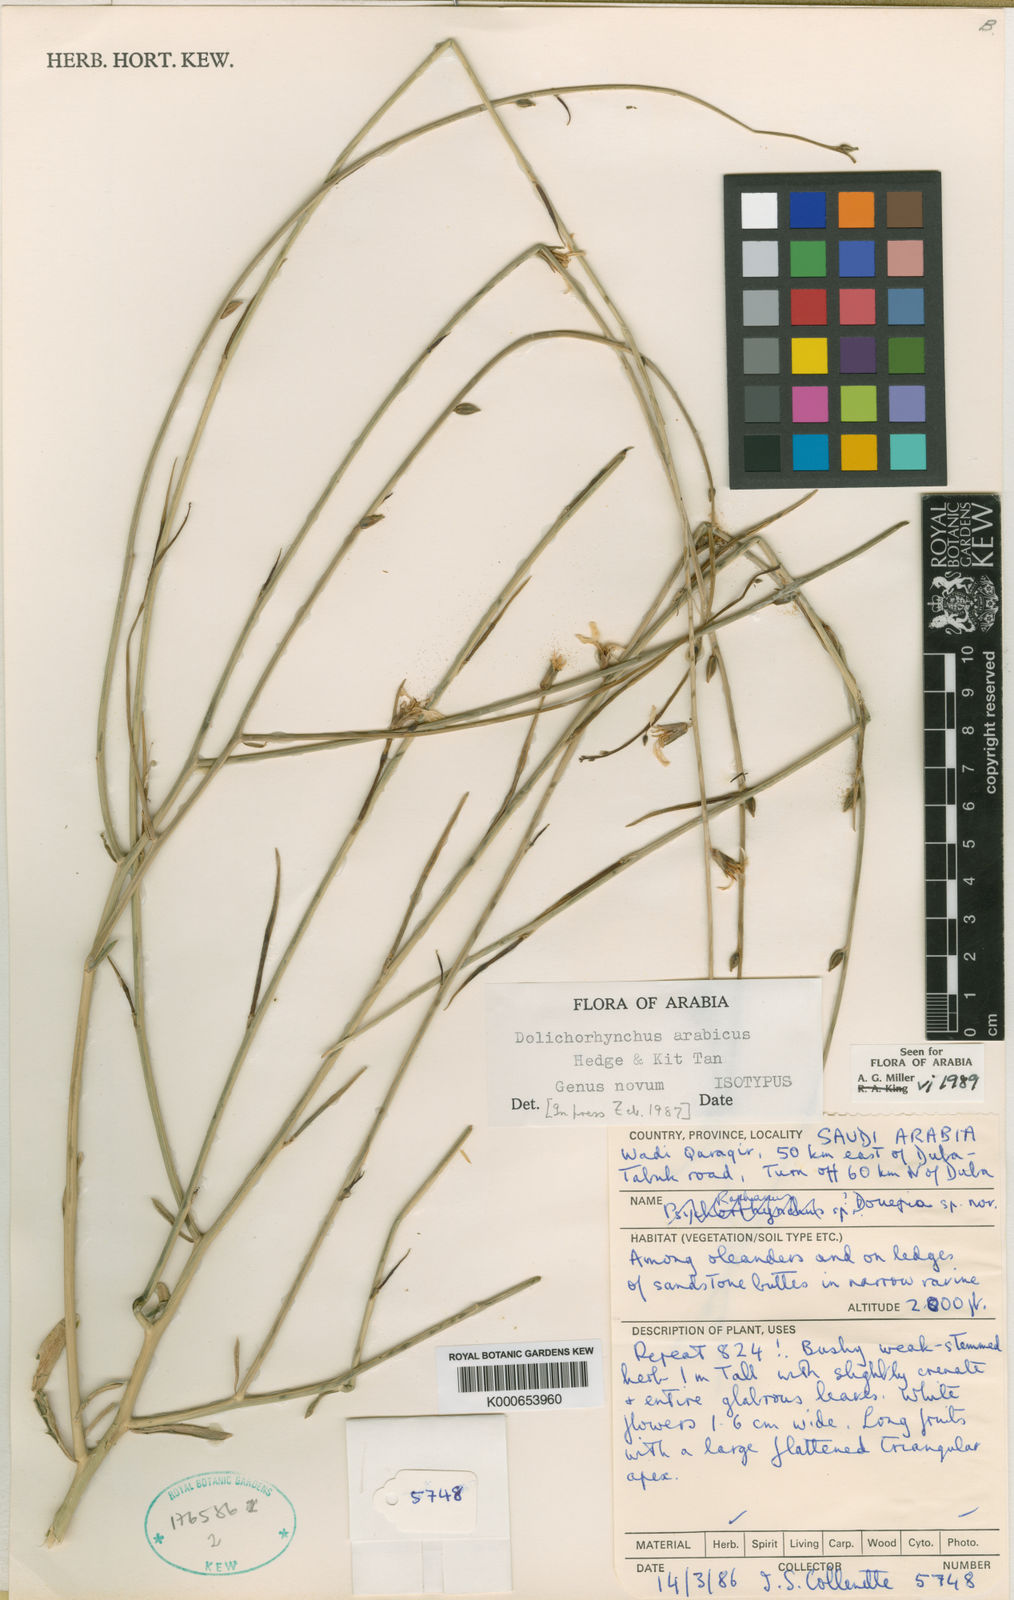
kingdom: Plantae
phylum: Tracheophyta
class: Magnoliopsida
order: Brassicales
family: Brassicaceae
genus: Douepea
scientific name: Douepea arabica
